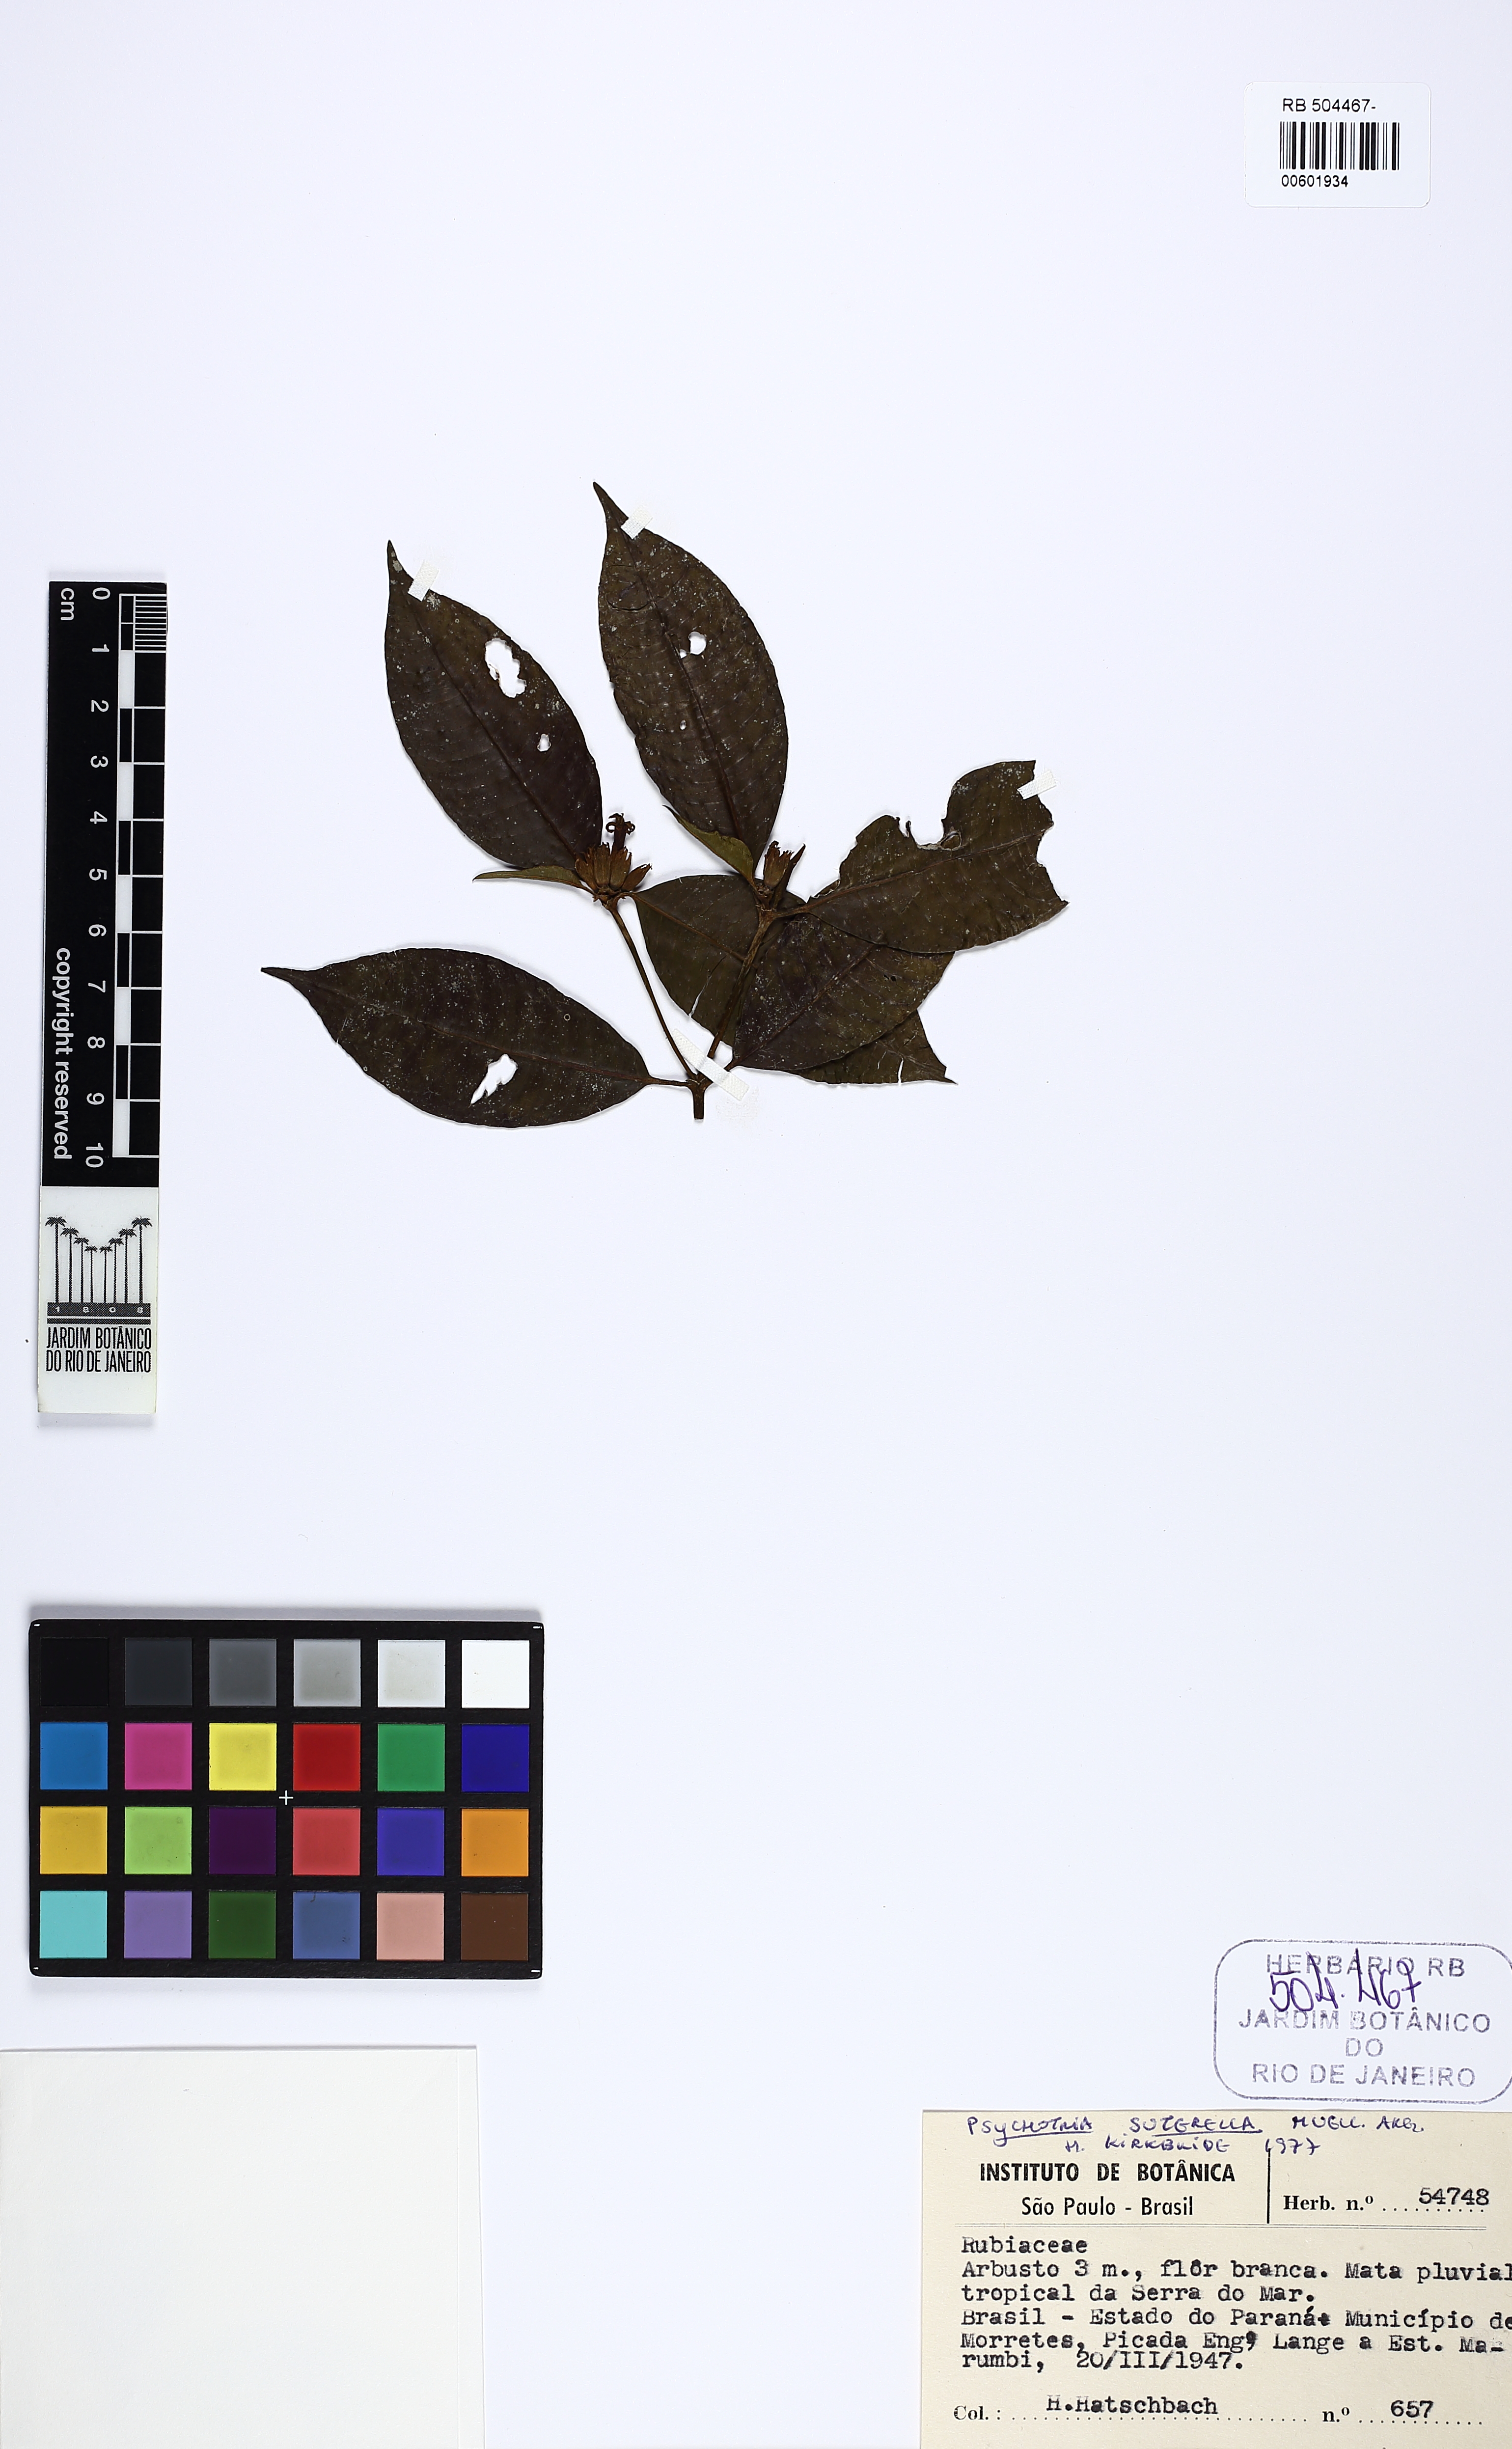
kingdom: Plantae
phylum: Tracheophyta
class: Magnoliopsida
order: Gentianales
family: Rubiaceae
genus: Psychotria
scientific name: Psychotria suterella
